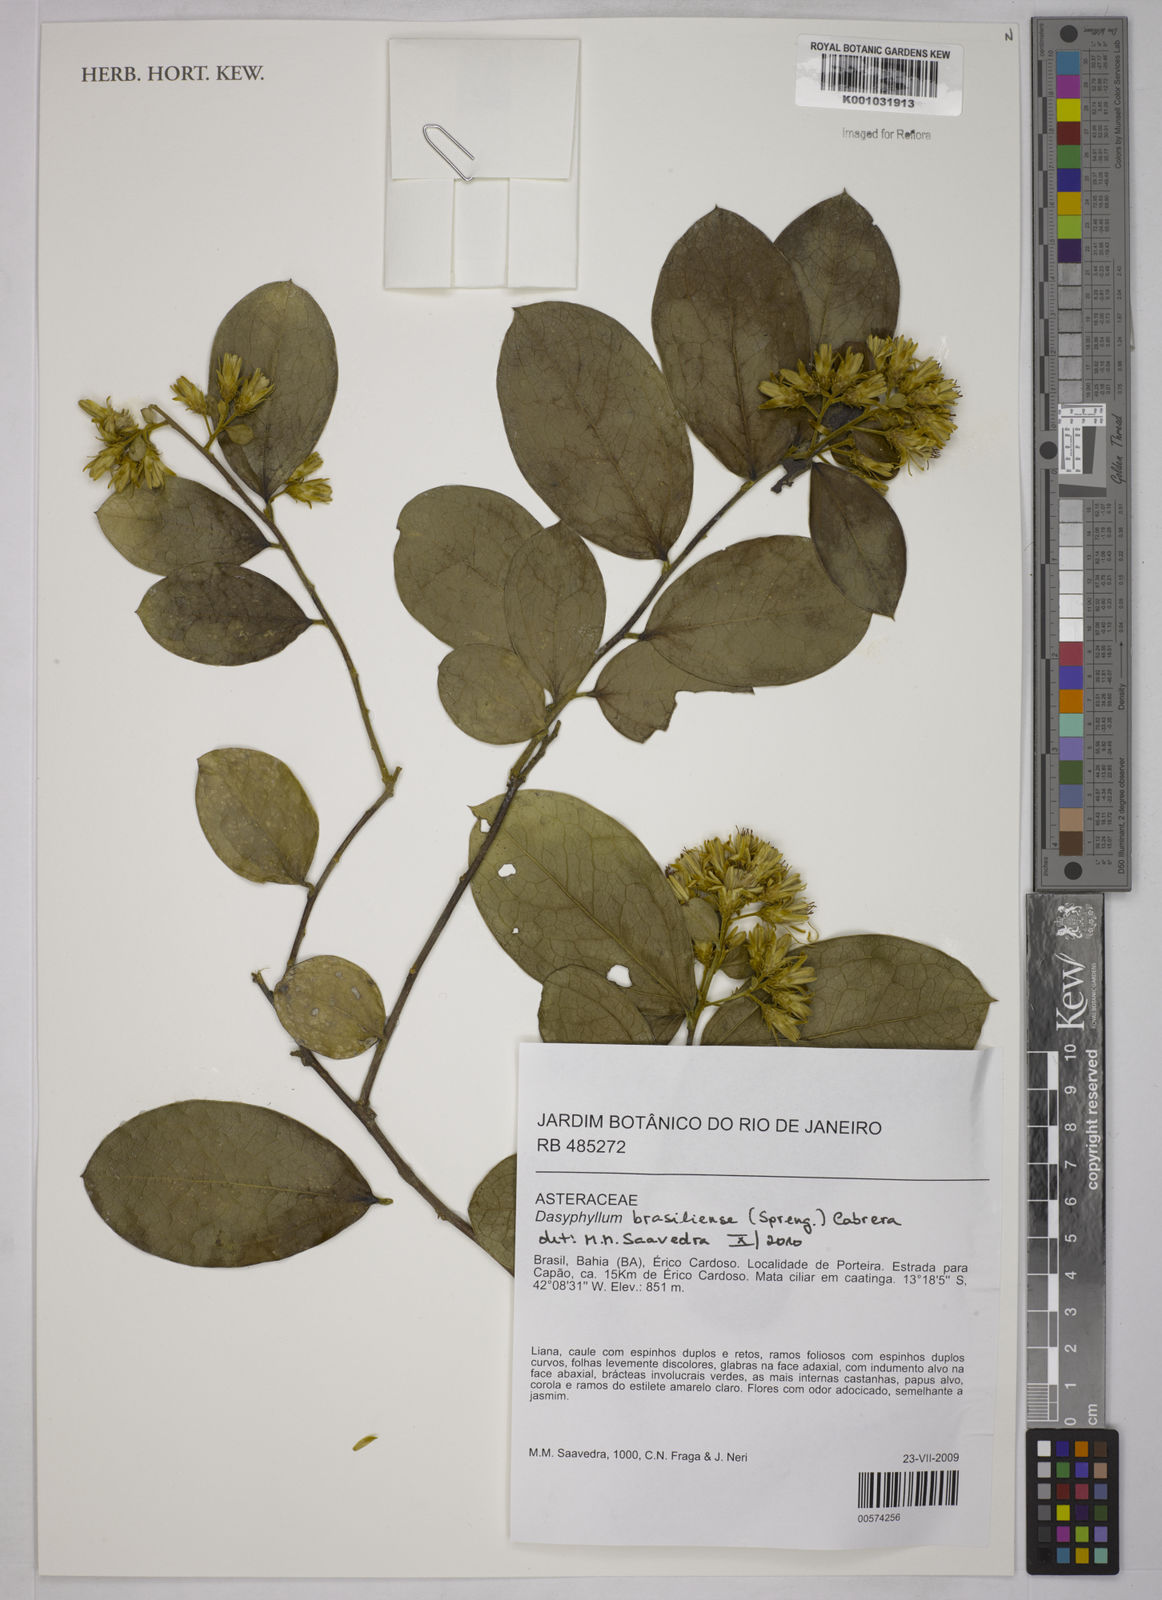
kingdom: Plantae
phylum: Tracheophyta
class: Magnoliopsida
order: Asterales
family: Asteraceae
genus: Dasyphyllum
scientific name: Dasyphyllum brasiliense
